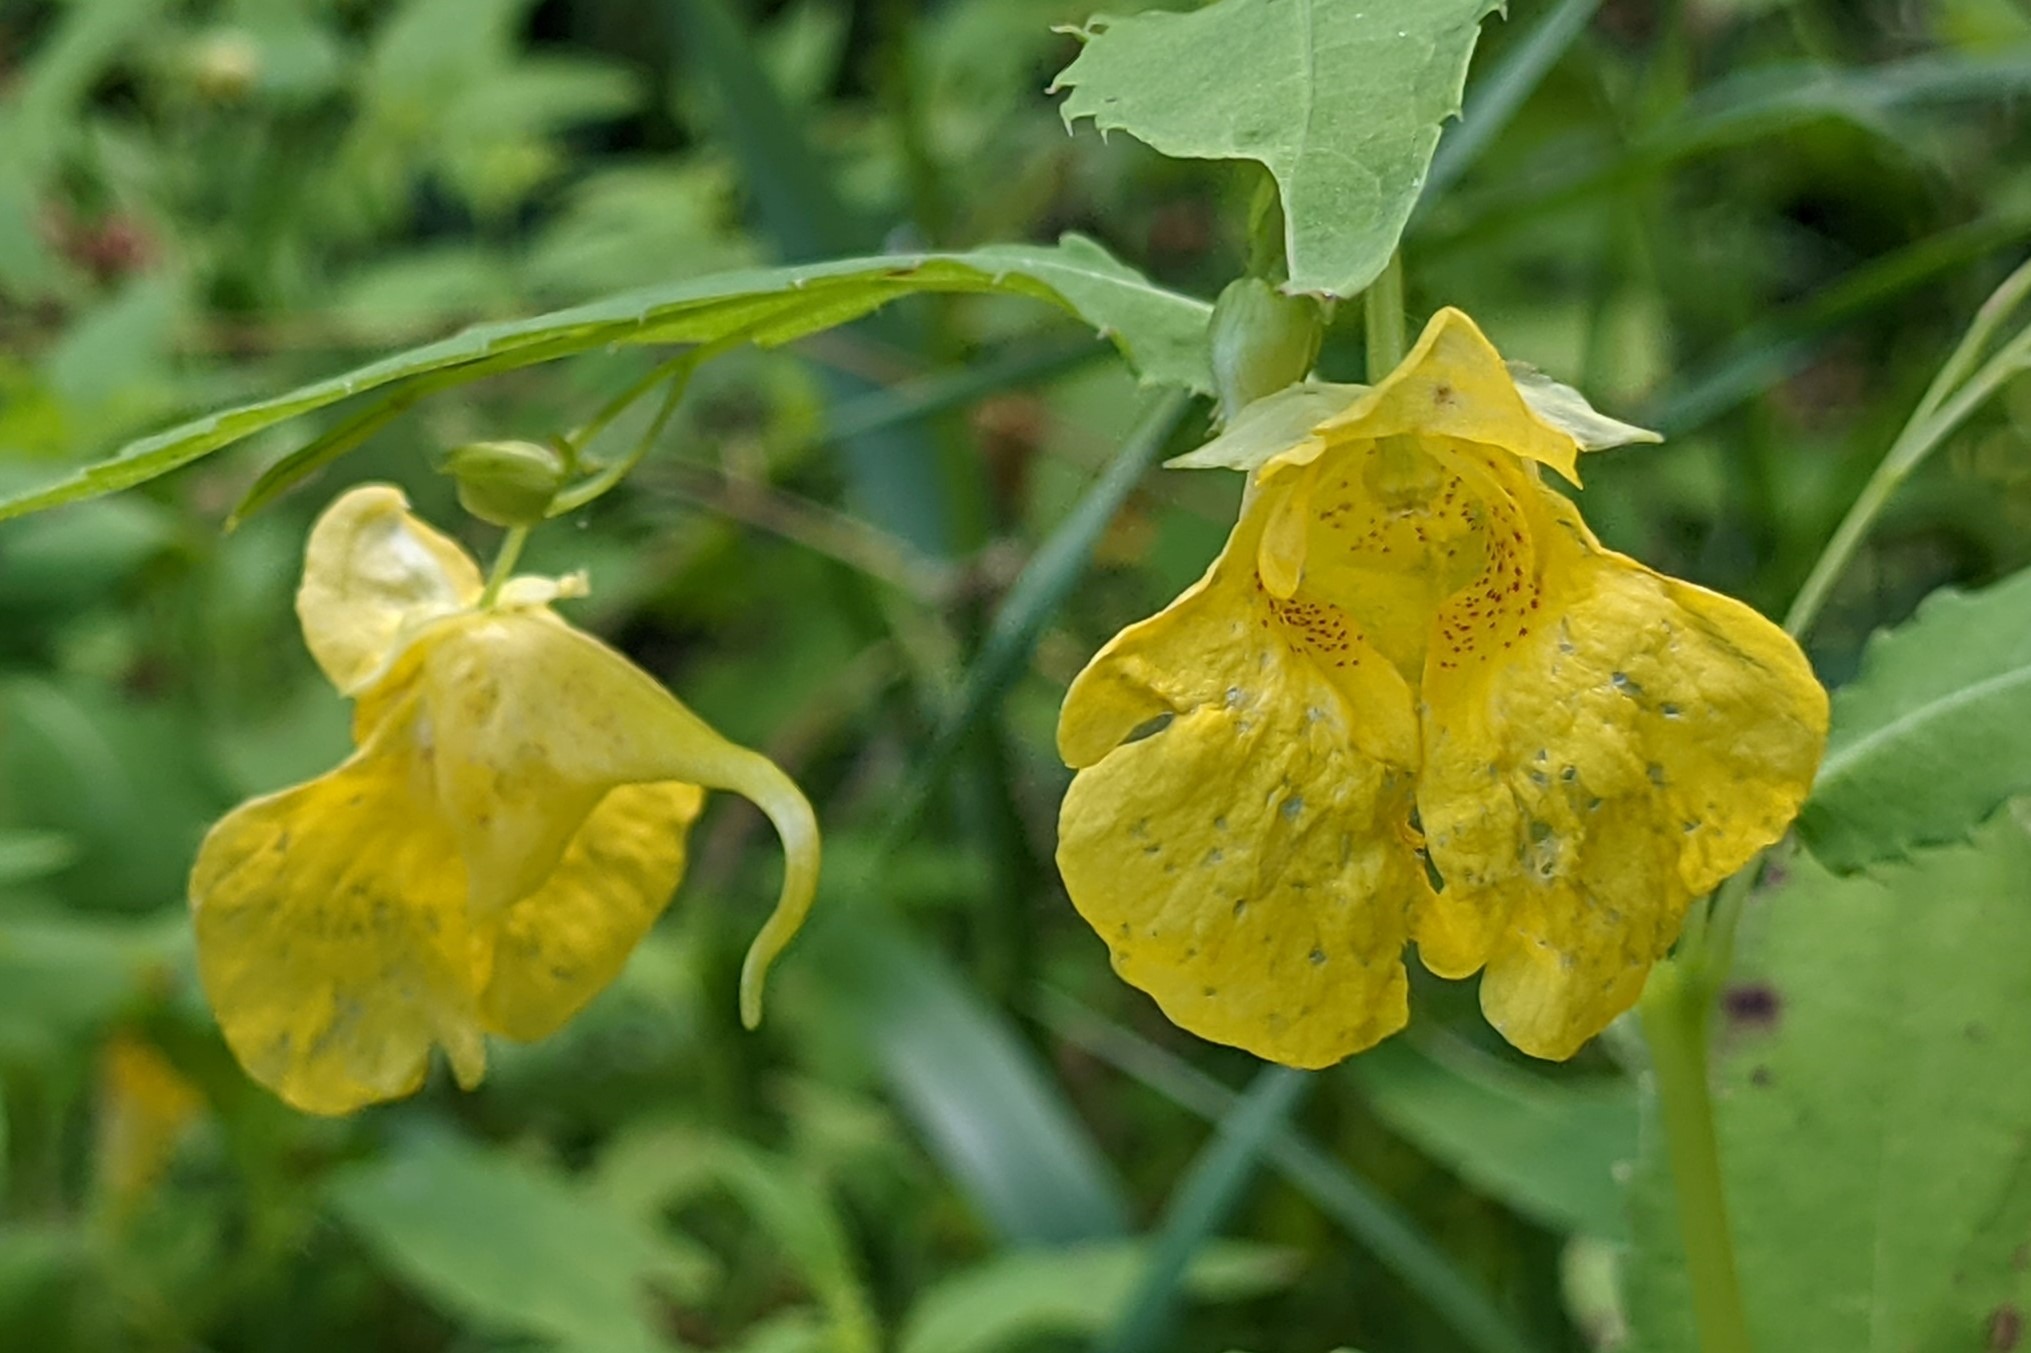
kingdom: Plantae
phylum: Tracheophyta
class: Magnoliopsida
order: Ericales
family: Balsaminaceae
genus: Impatiens
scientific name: Impatiens noli-tangere
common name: Spring-balsamin
